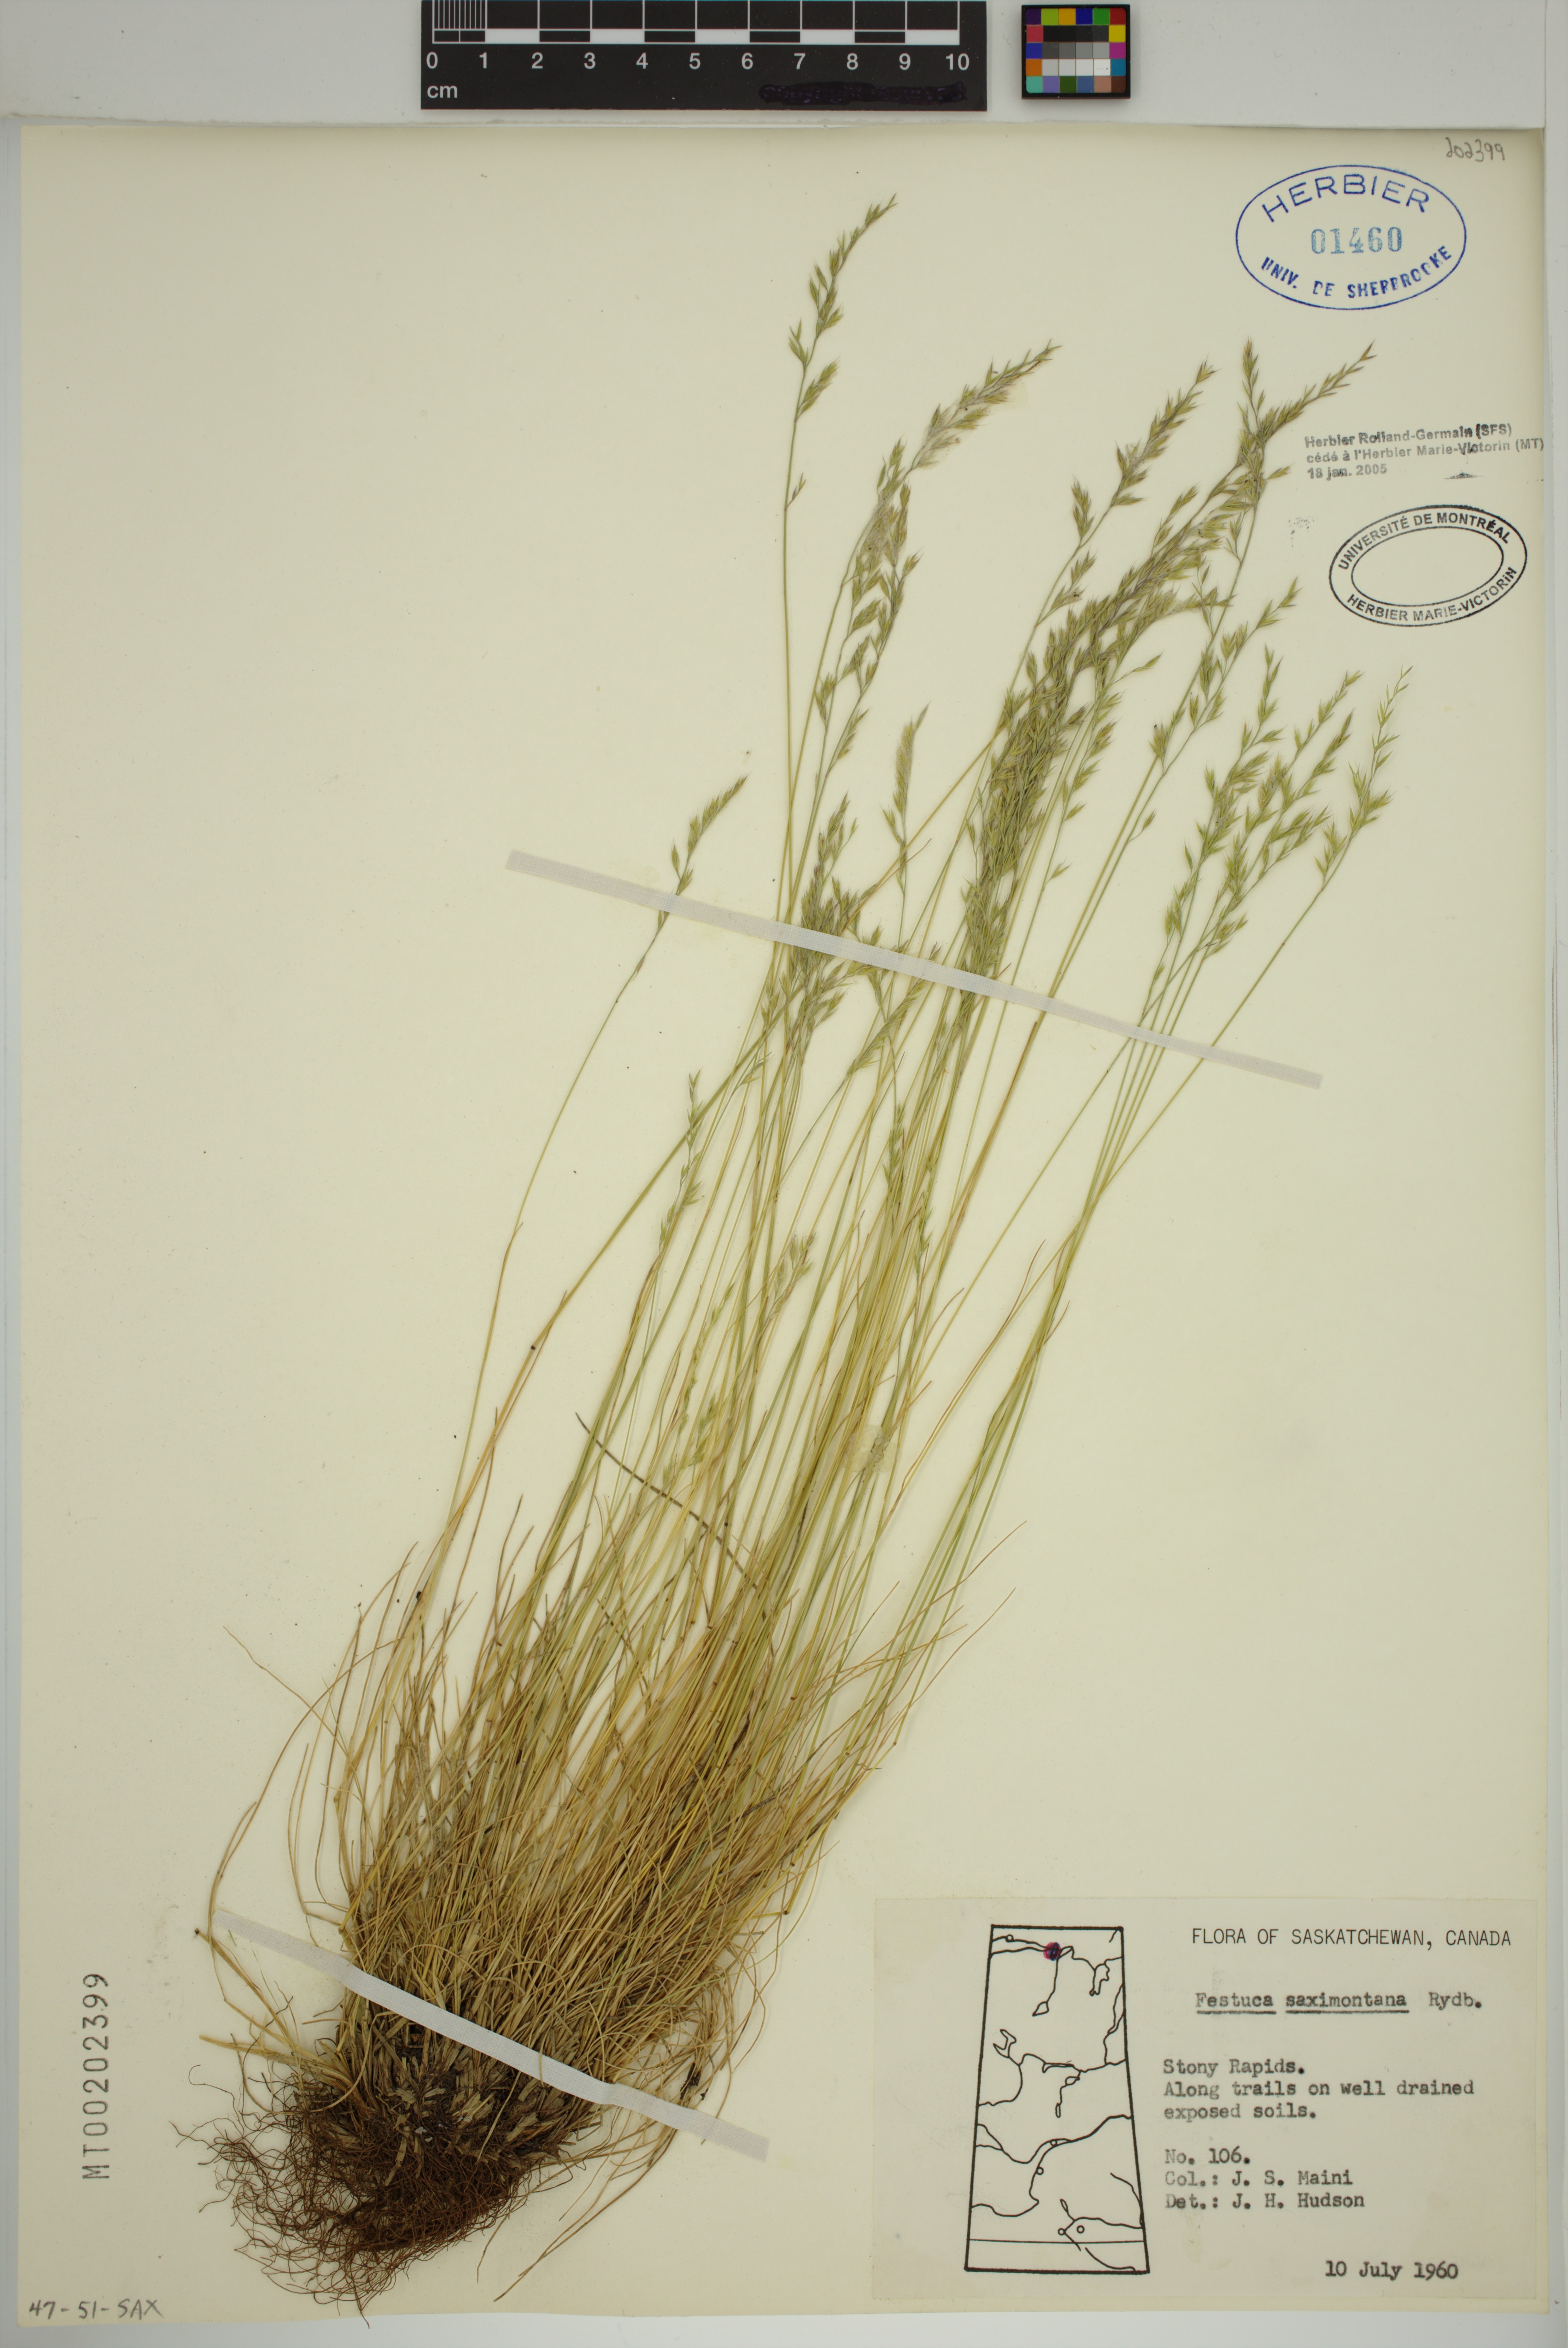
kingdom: Plantae
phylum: Tracheophyta
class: Liliopsida
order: Poales
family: Poaceae
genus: Festuca
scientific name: Festuca saximontana
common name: Mountain fescue
